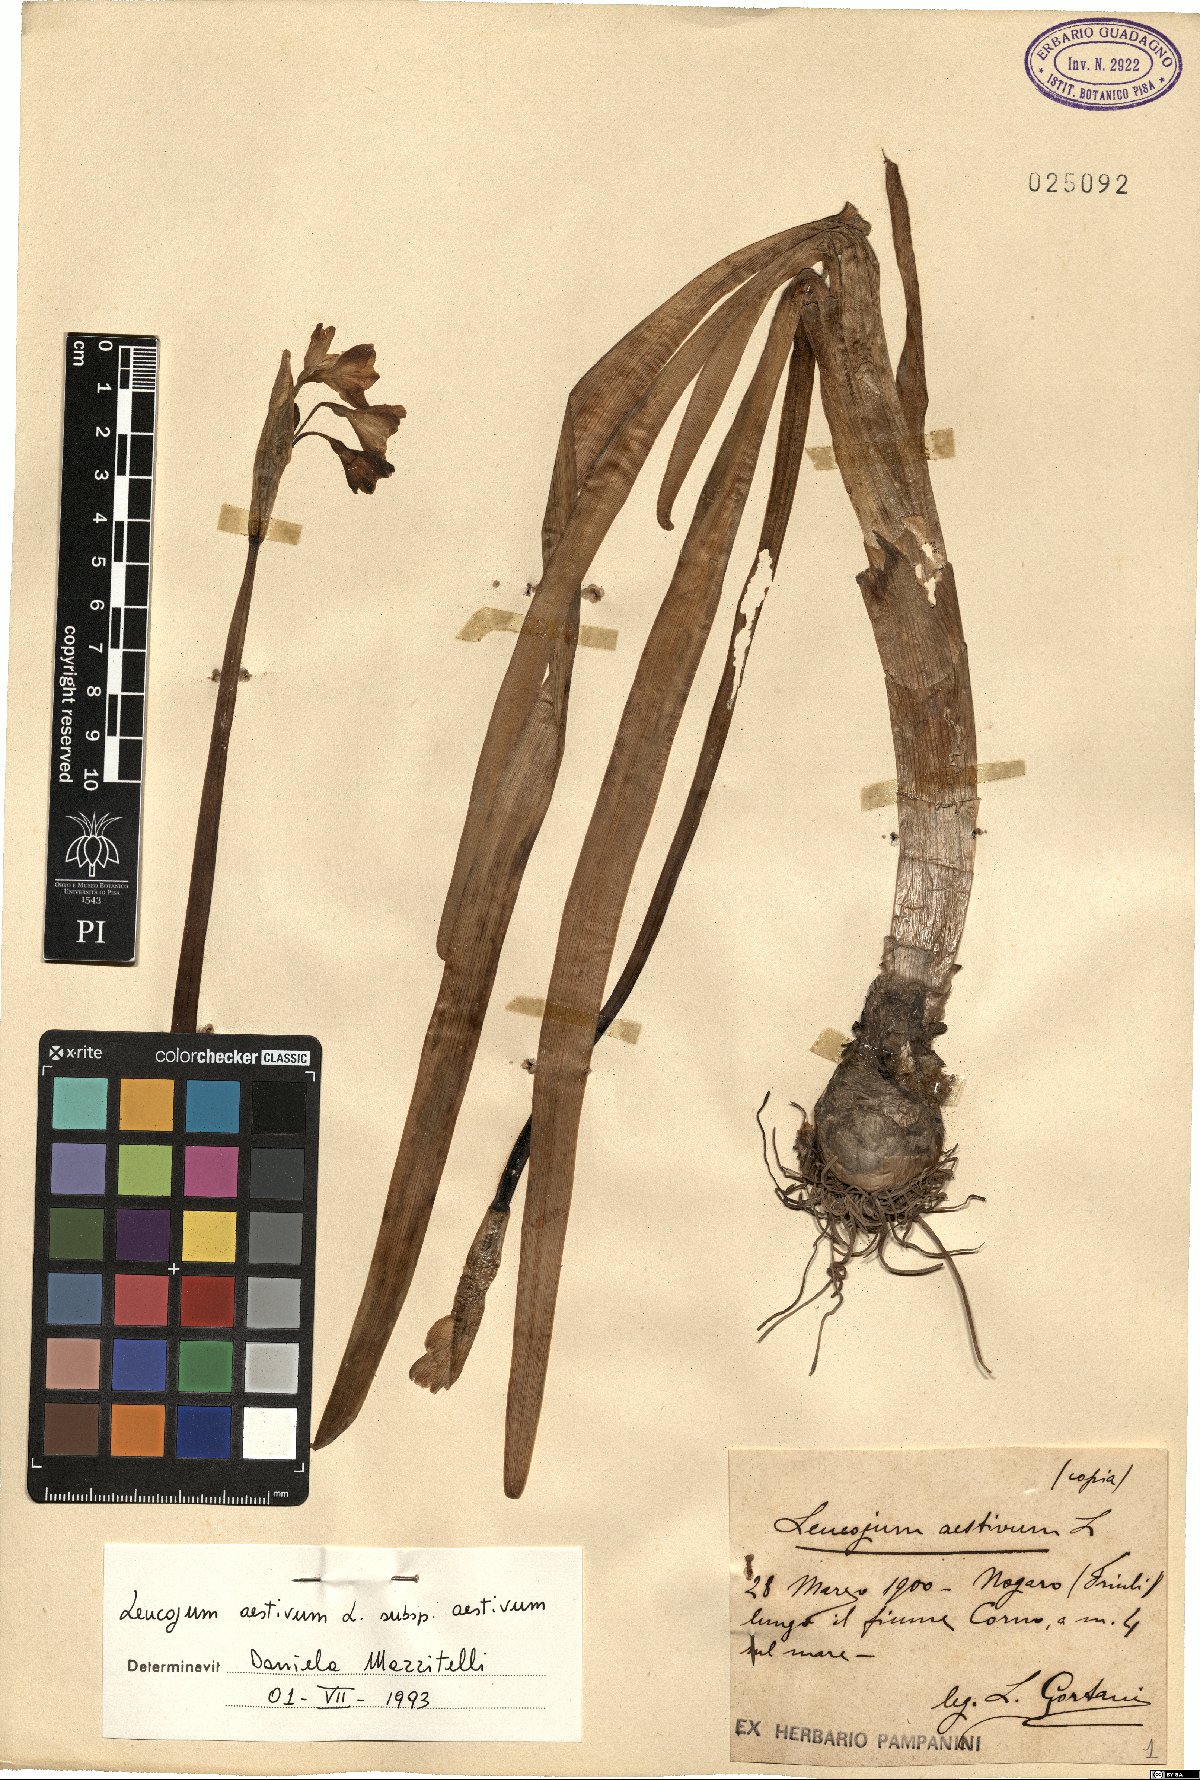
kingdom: Plantae
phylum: Tracheophyta
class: Liliopsida
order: Asparagales
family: Amaryllidaceae
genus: Leucojum
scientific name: Leucojum aestivum
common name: Summer snowflake
